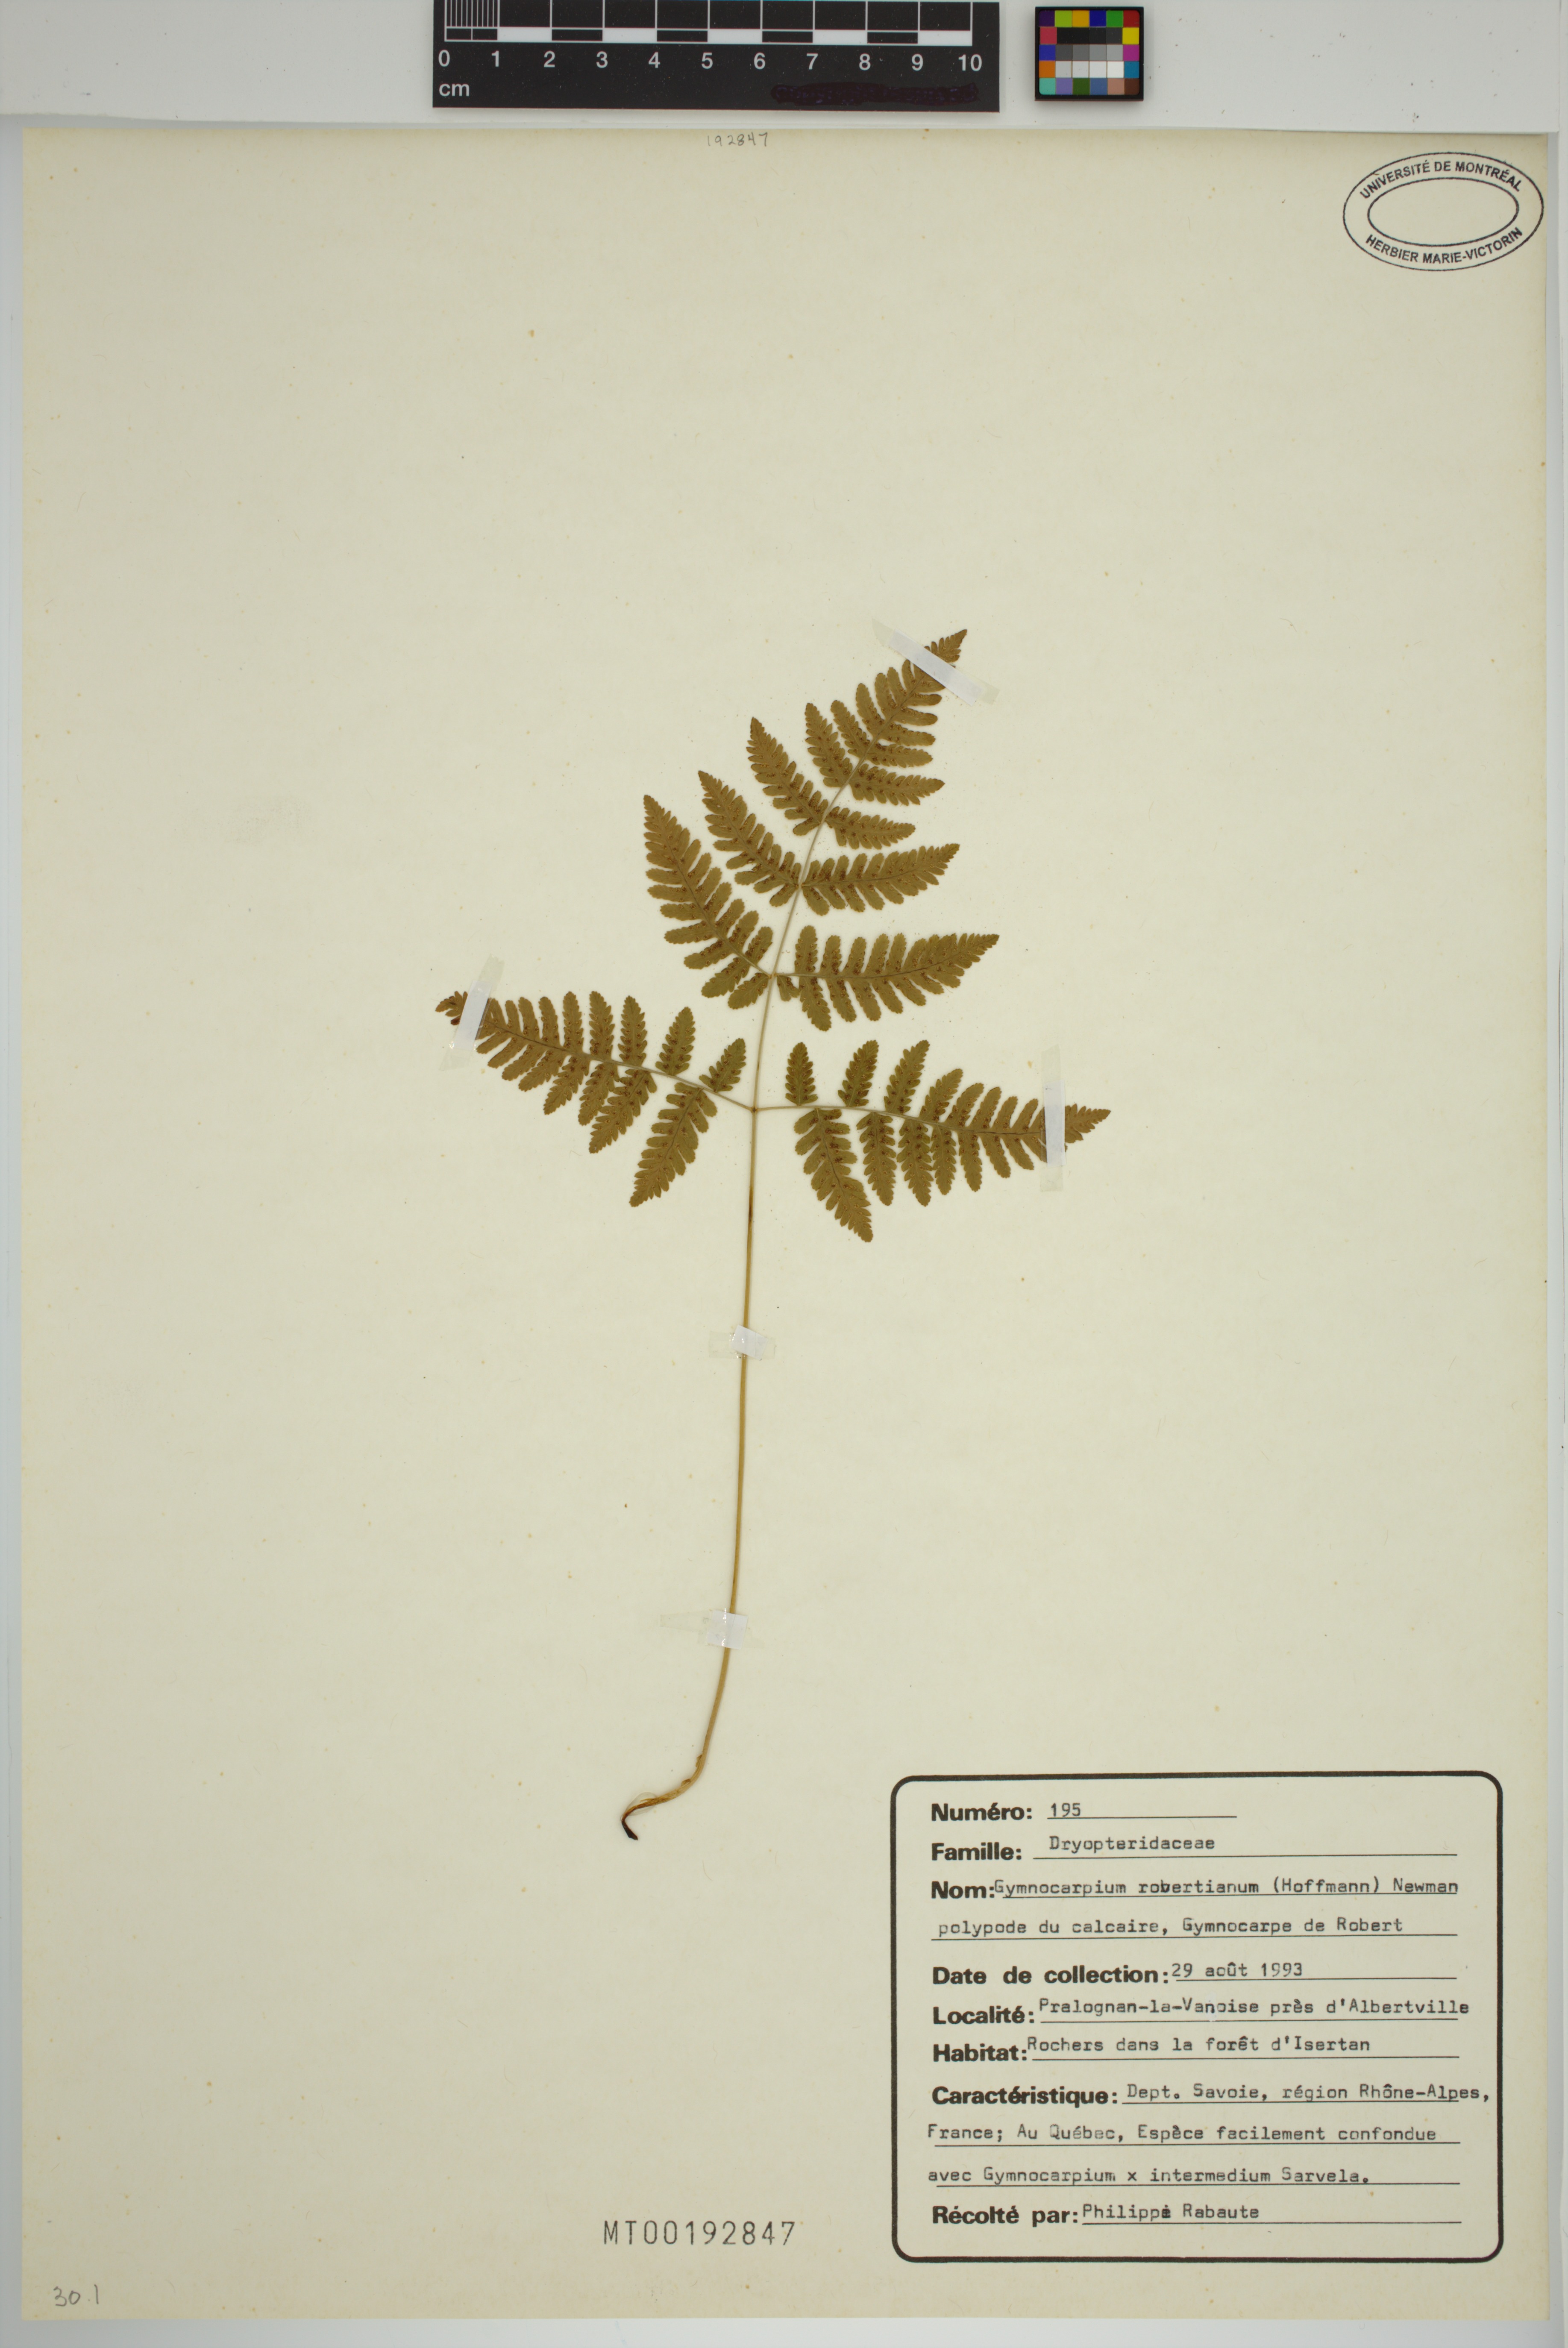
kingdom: Plantae
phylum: Tracheophyta
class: Polypodiopsida
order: Polypodiales
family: Cystopteridaceae
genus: Gymnocarpium
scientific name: Gymnocarpium robertianum
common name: Limestone fern
